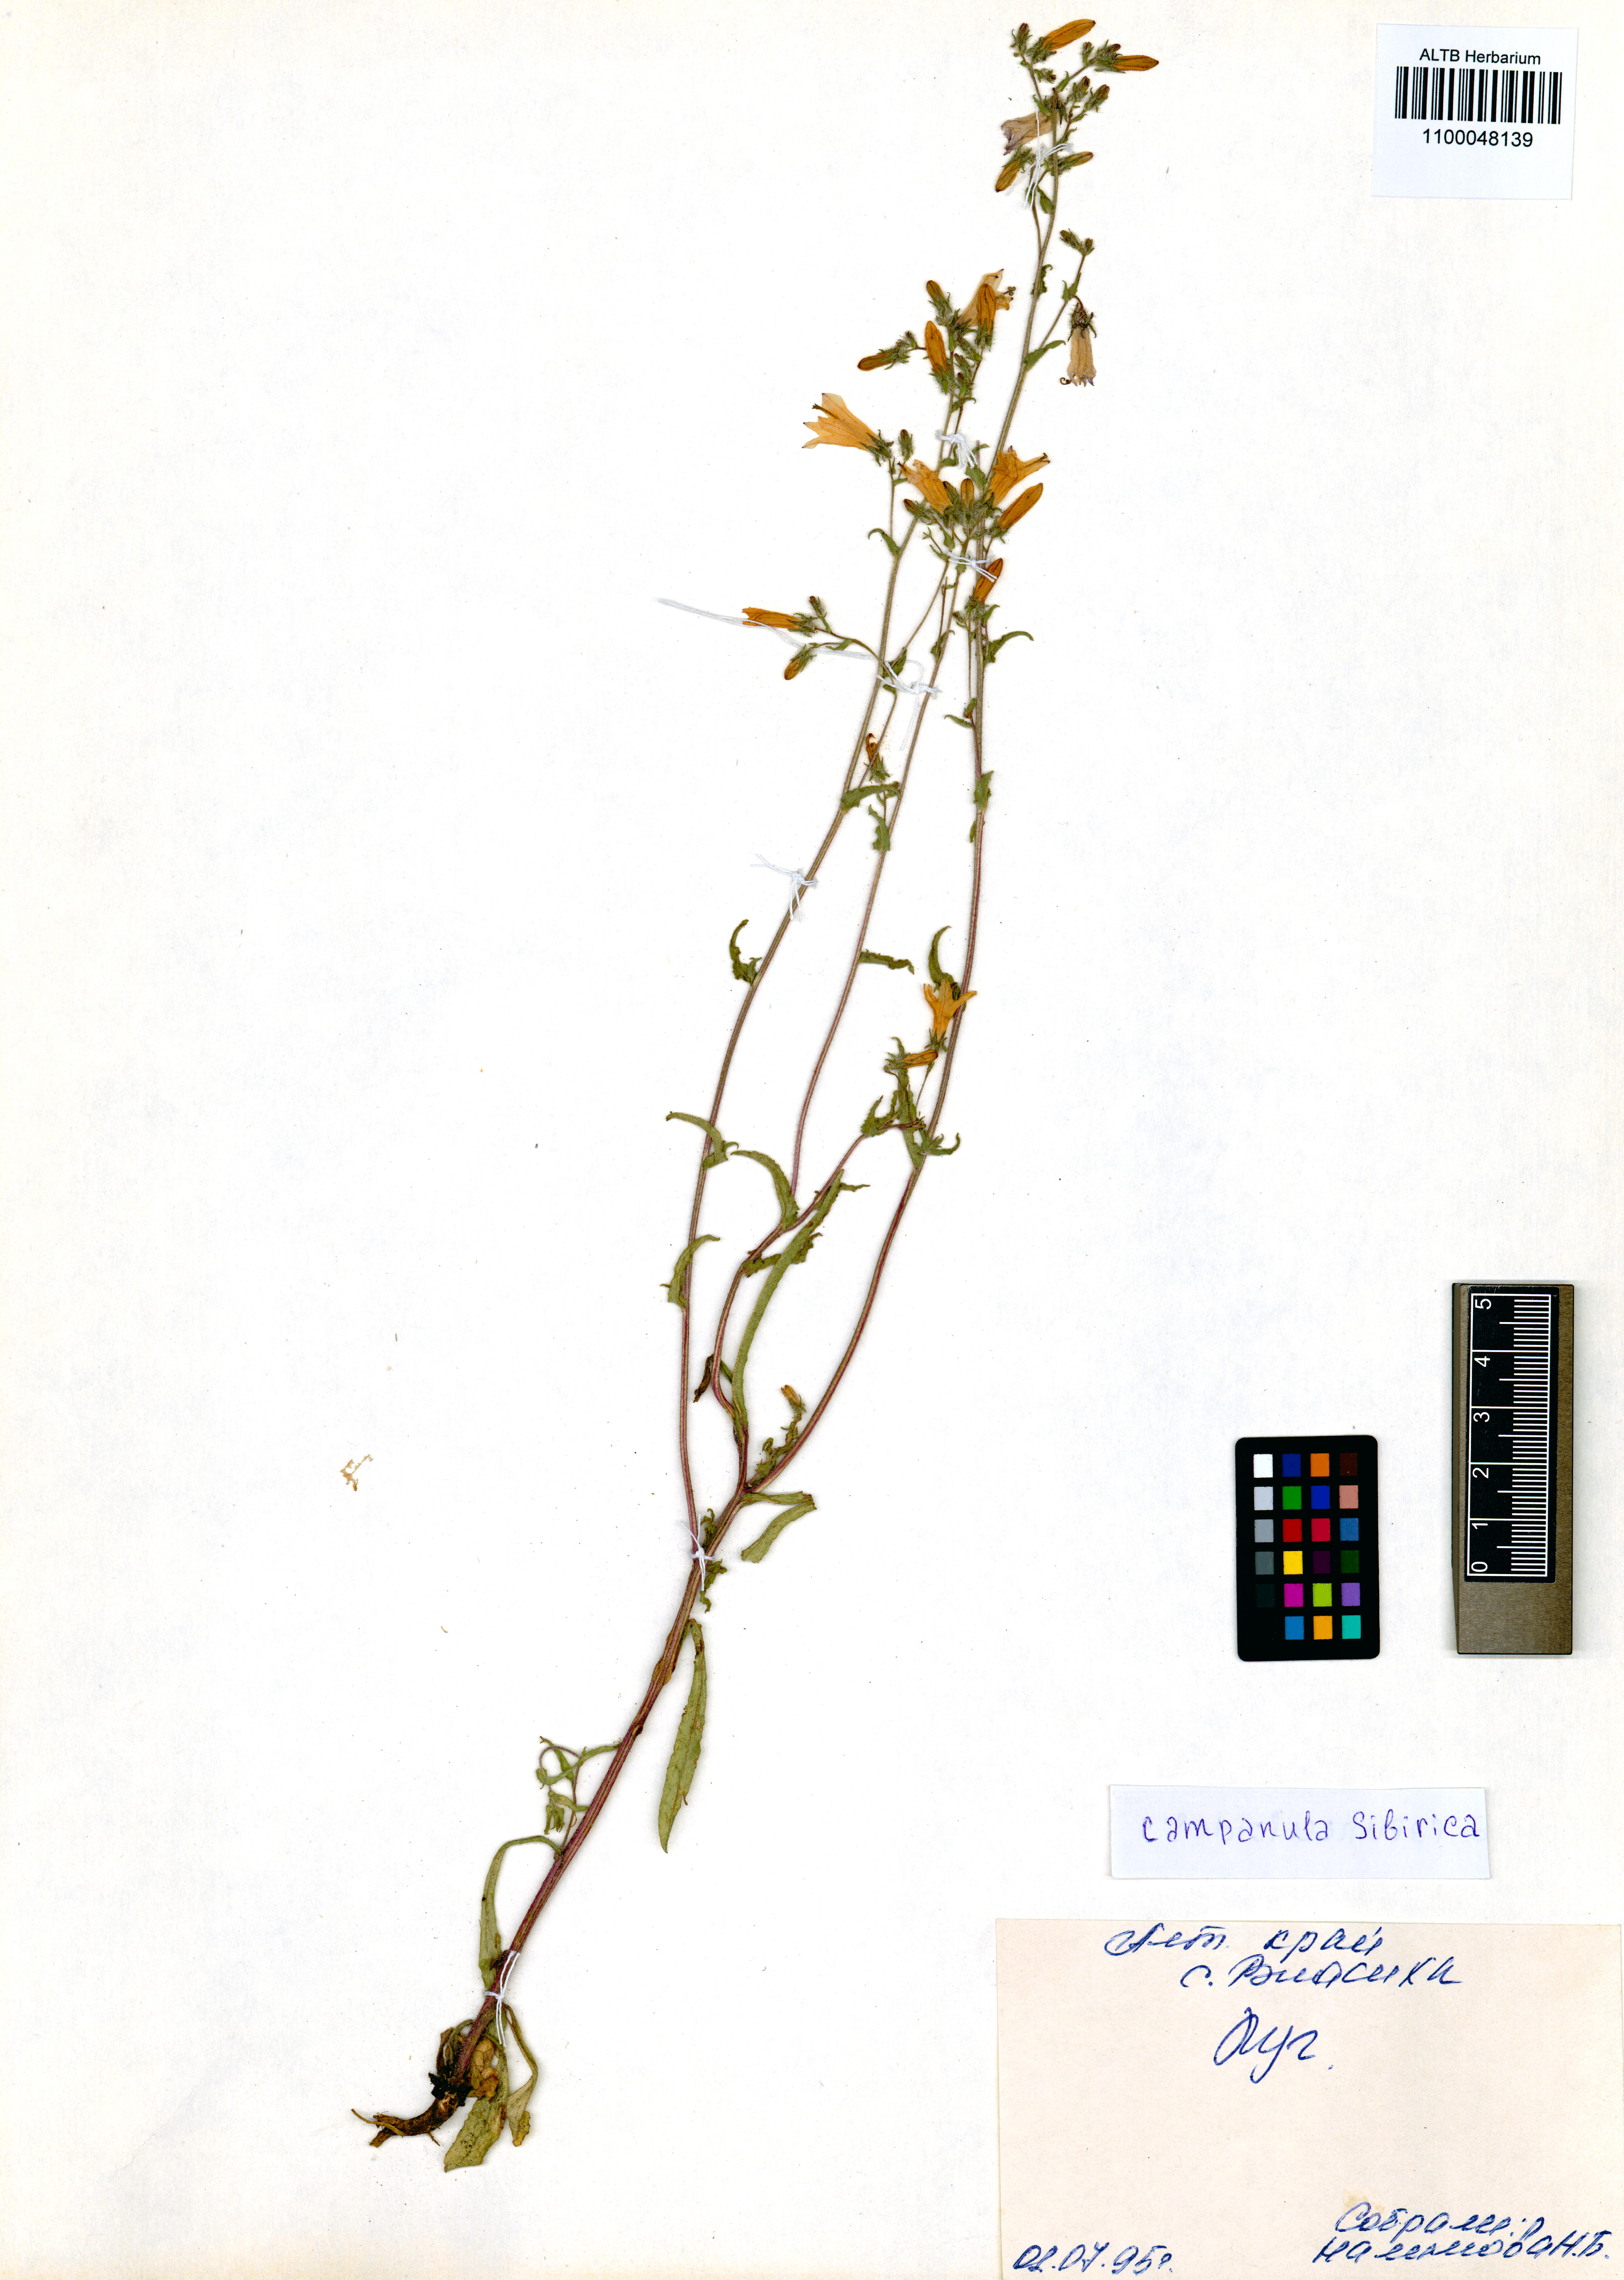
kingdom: Plantae
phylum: Tracheophyta
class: Magnoliopsida
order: Asterales
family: Campanulaceae
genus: Campanula
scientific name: Campanula sibirica
